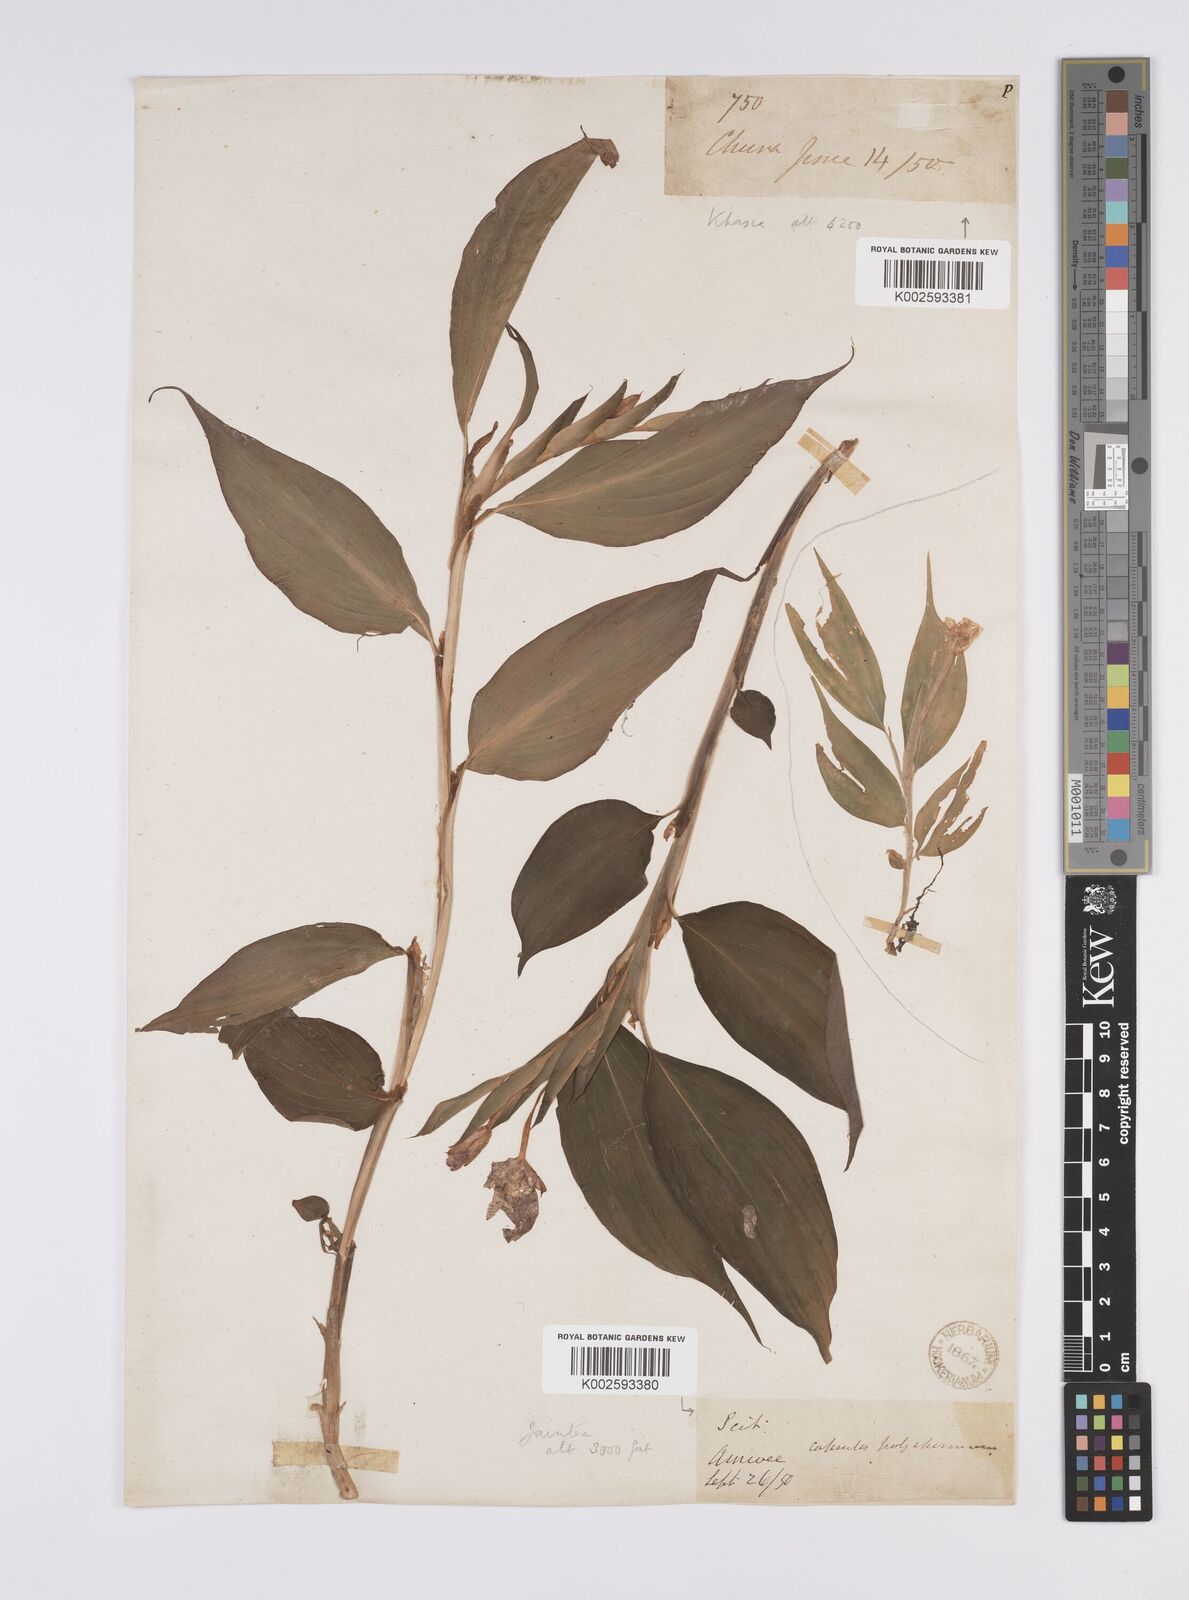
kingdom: Plantae
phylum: Tracheophyta
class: Liliopsida
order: Zingiberales
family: Zingiberaceae
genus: Caulokaempferia
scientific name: Caulokaempferia secunda
